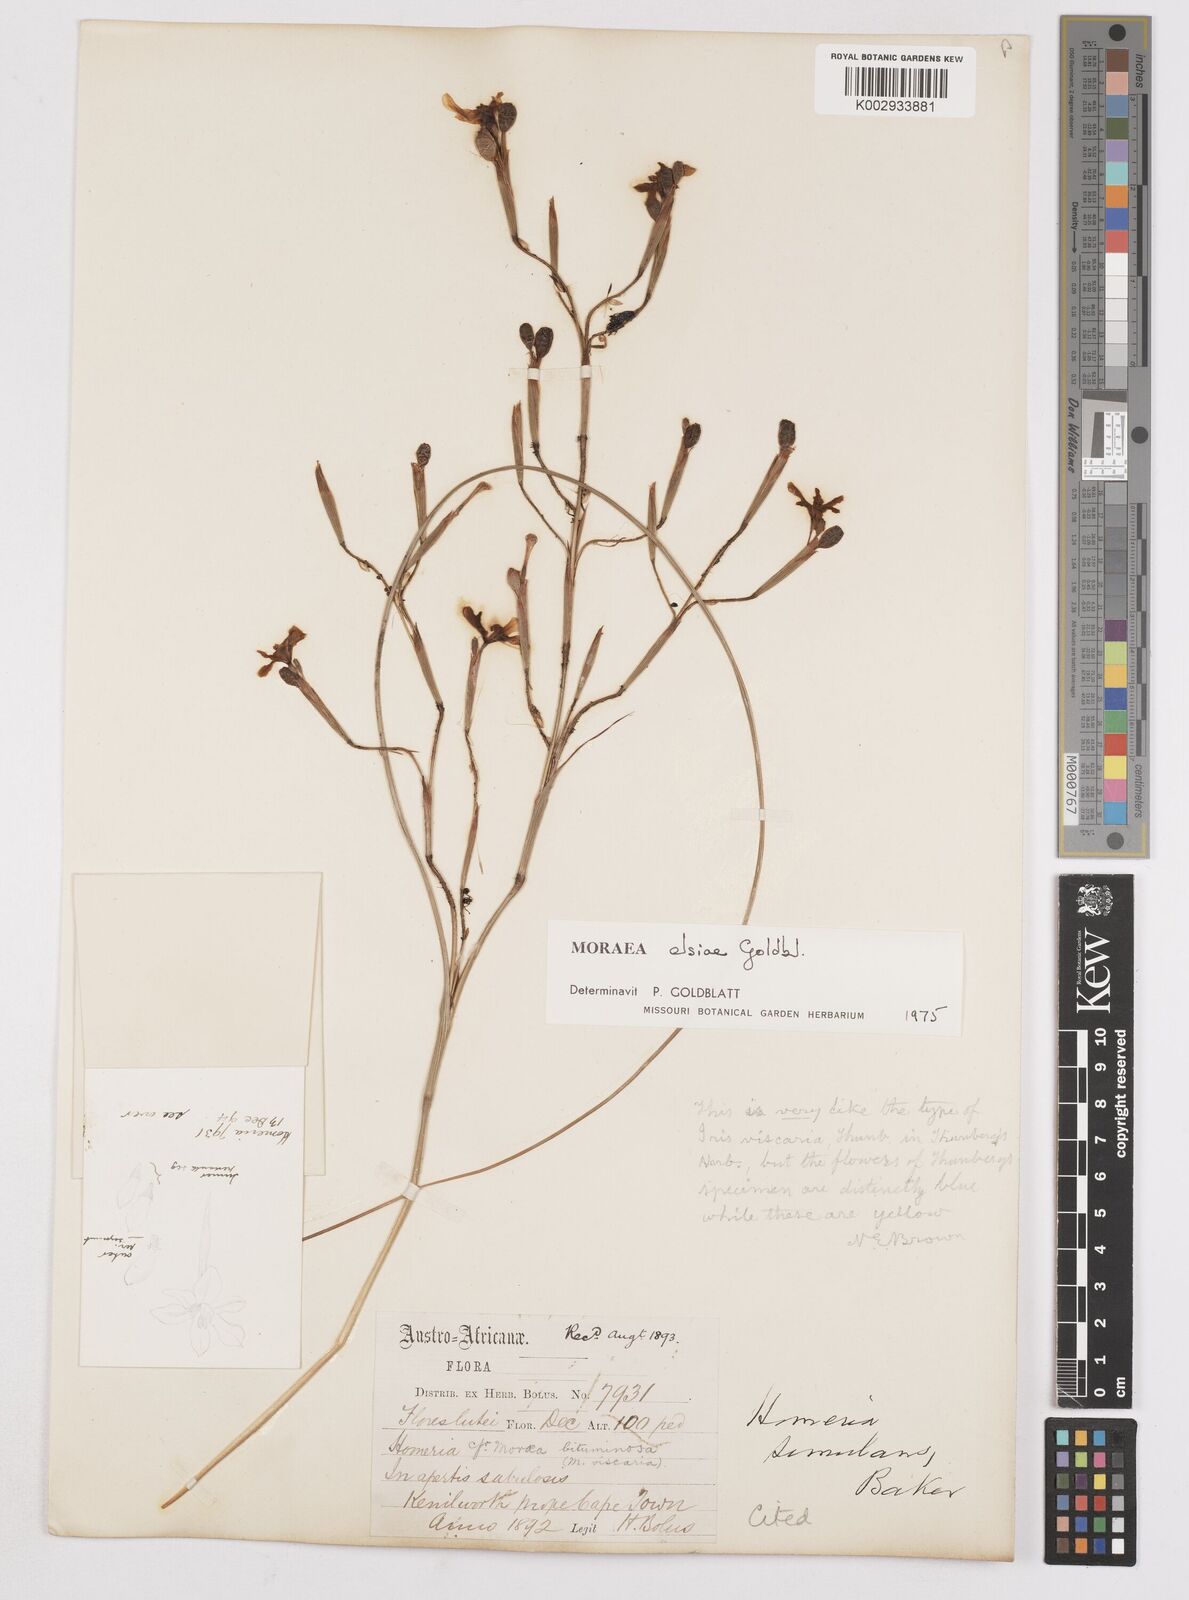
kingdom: Plantae
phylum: Tracheophyta
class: Liliopsida
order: Asparagales
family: Iridaceae
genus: Moraea
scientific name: Moraea elsiae
